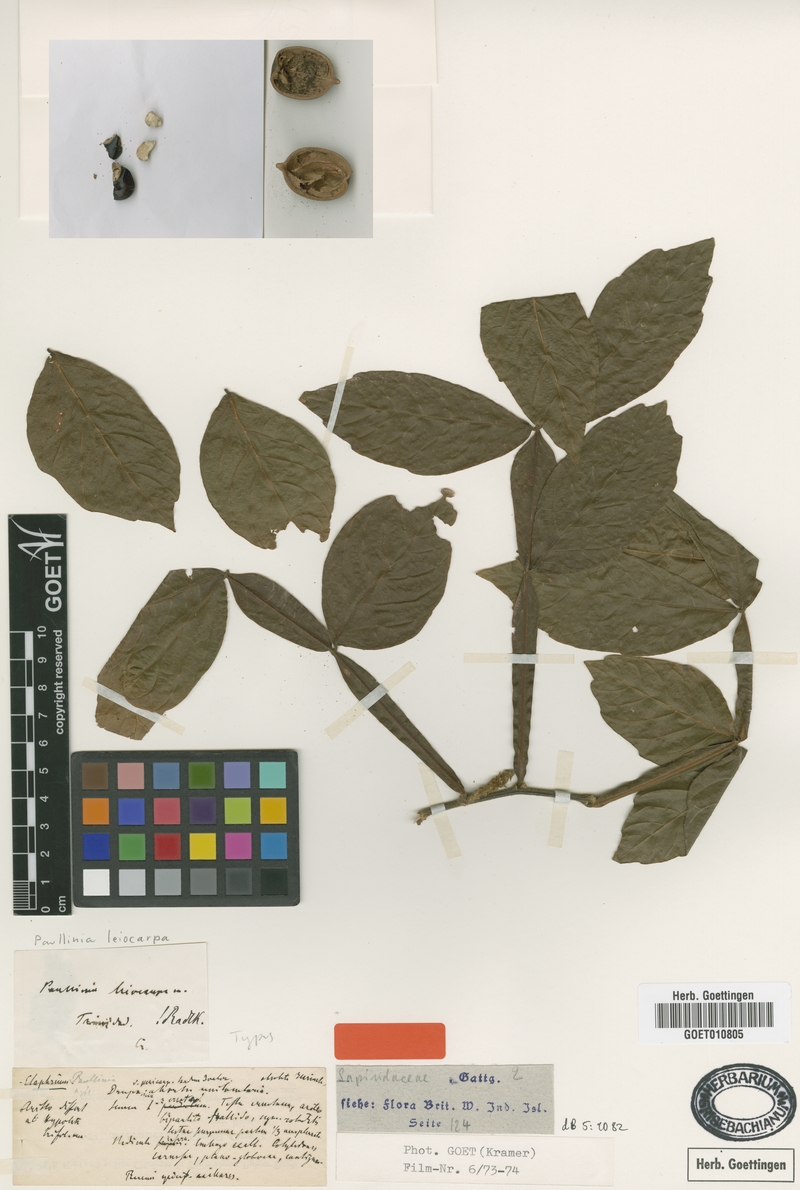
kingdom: Plantae
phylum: Tracheophyta
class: Magnoliopsida
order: Sapindales
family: Sapindaceae
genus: Paullinia
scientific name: Paullinia leiocarpa
